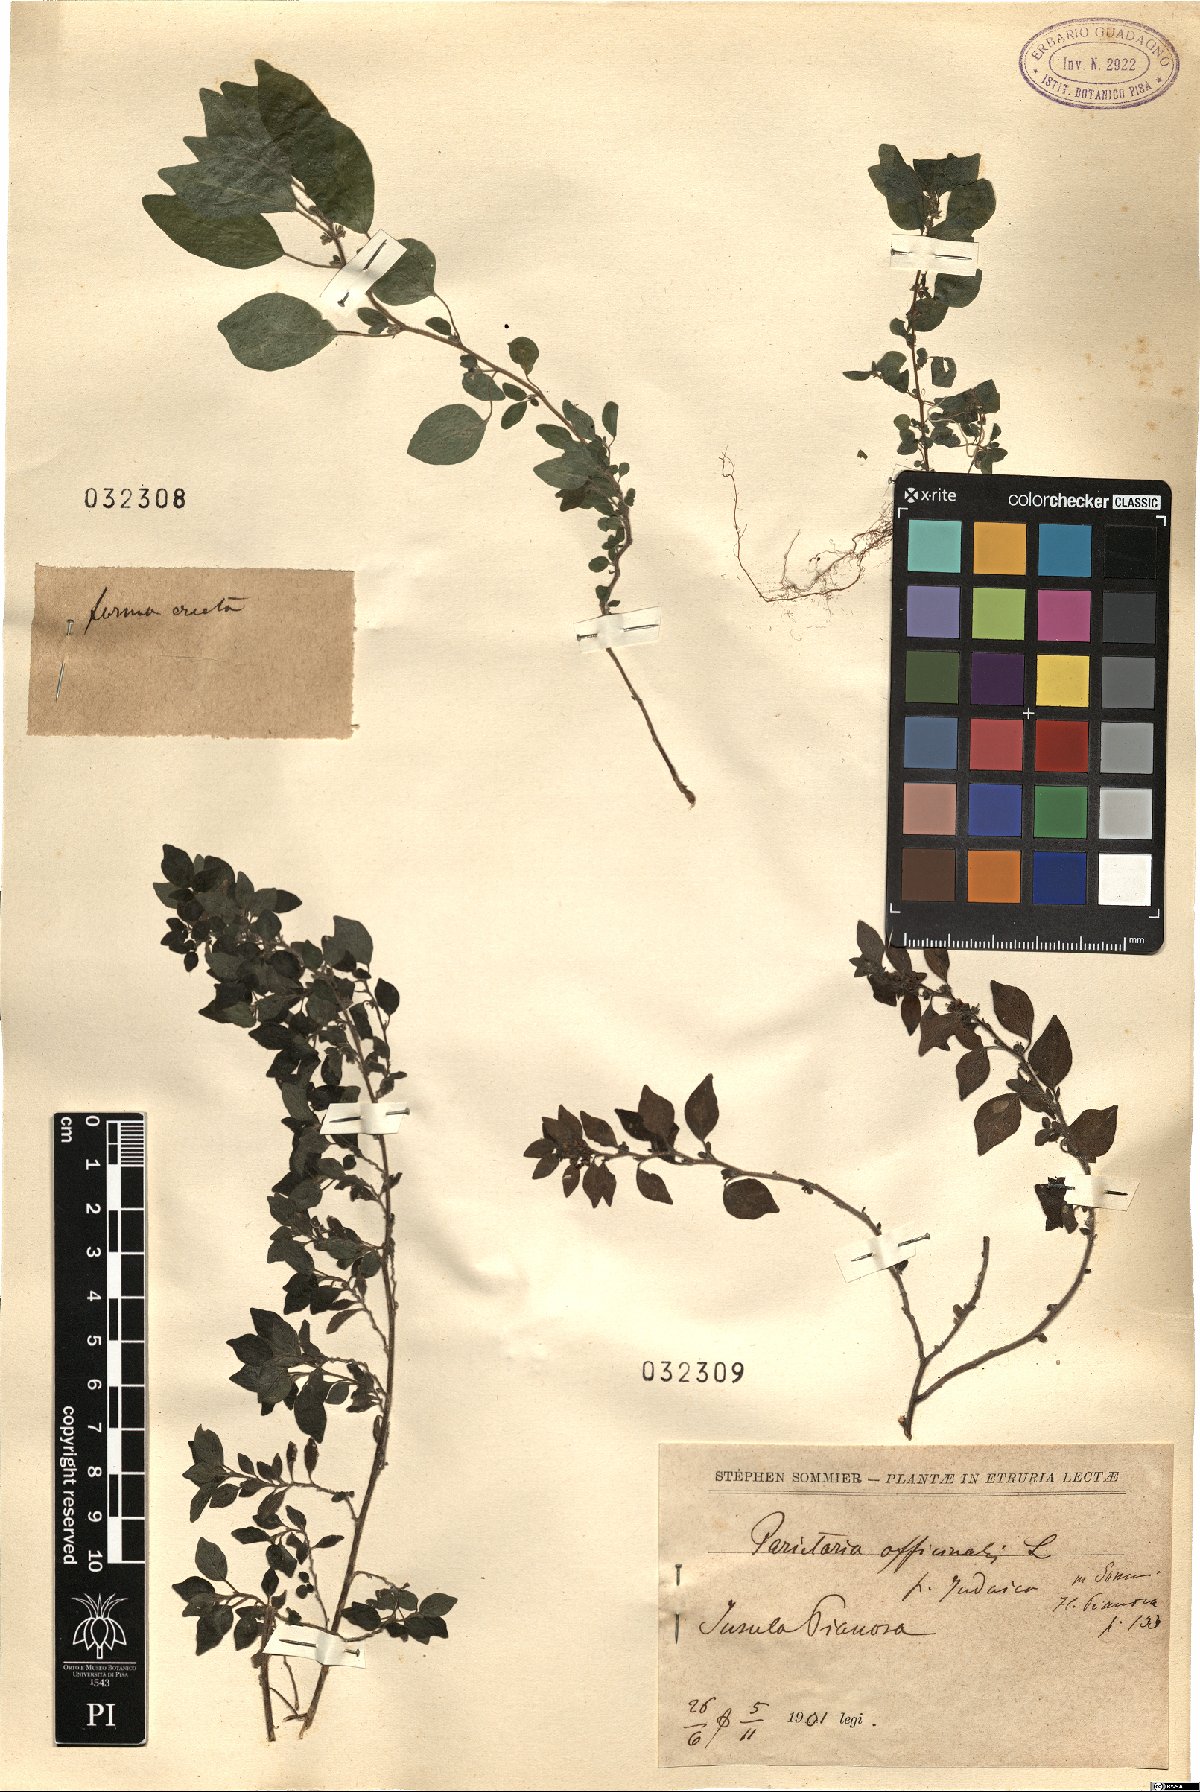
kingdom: Plantae
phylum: Tracheophyta
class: Magnoliopsida
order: Rosales
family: Urticaceae
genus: Parietaria
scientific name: Parietaria judaica
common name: Pellitory-of-the-wall
